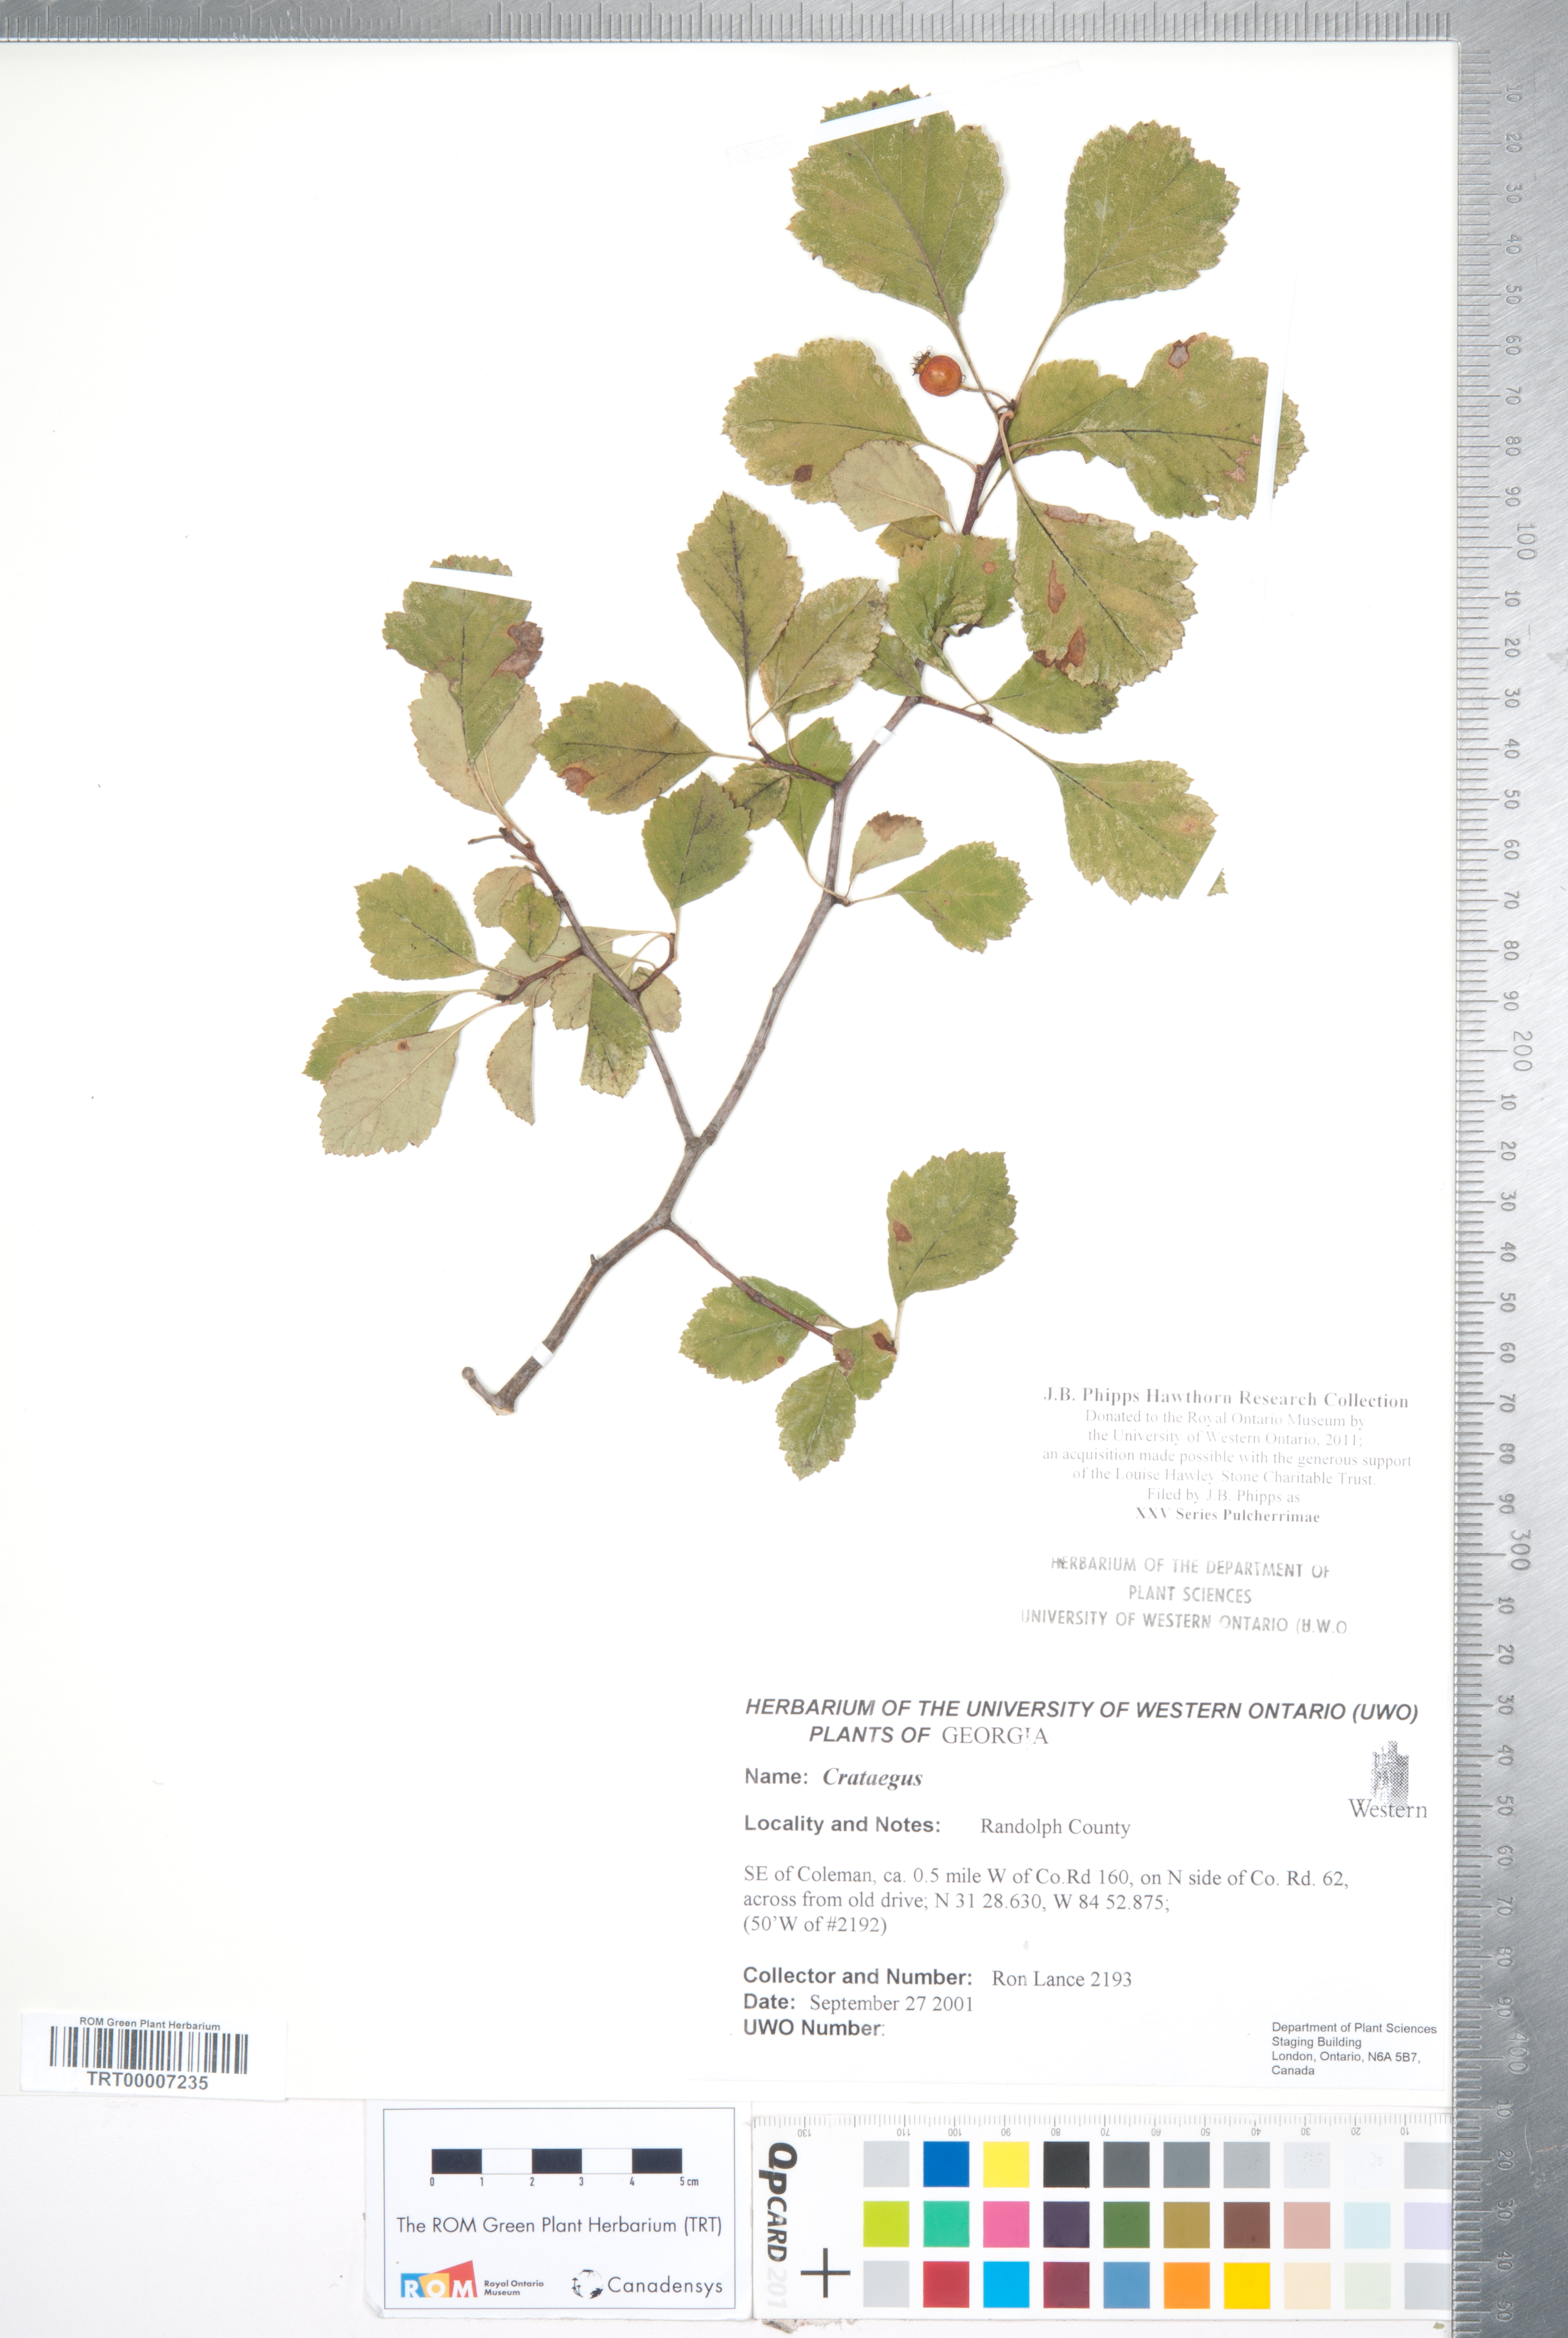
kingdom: Plantae
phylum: Tracheophyta
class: Magnoliopsida
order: Rosales
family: Rosaceae
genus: Crataegus
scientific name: Crataegus
